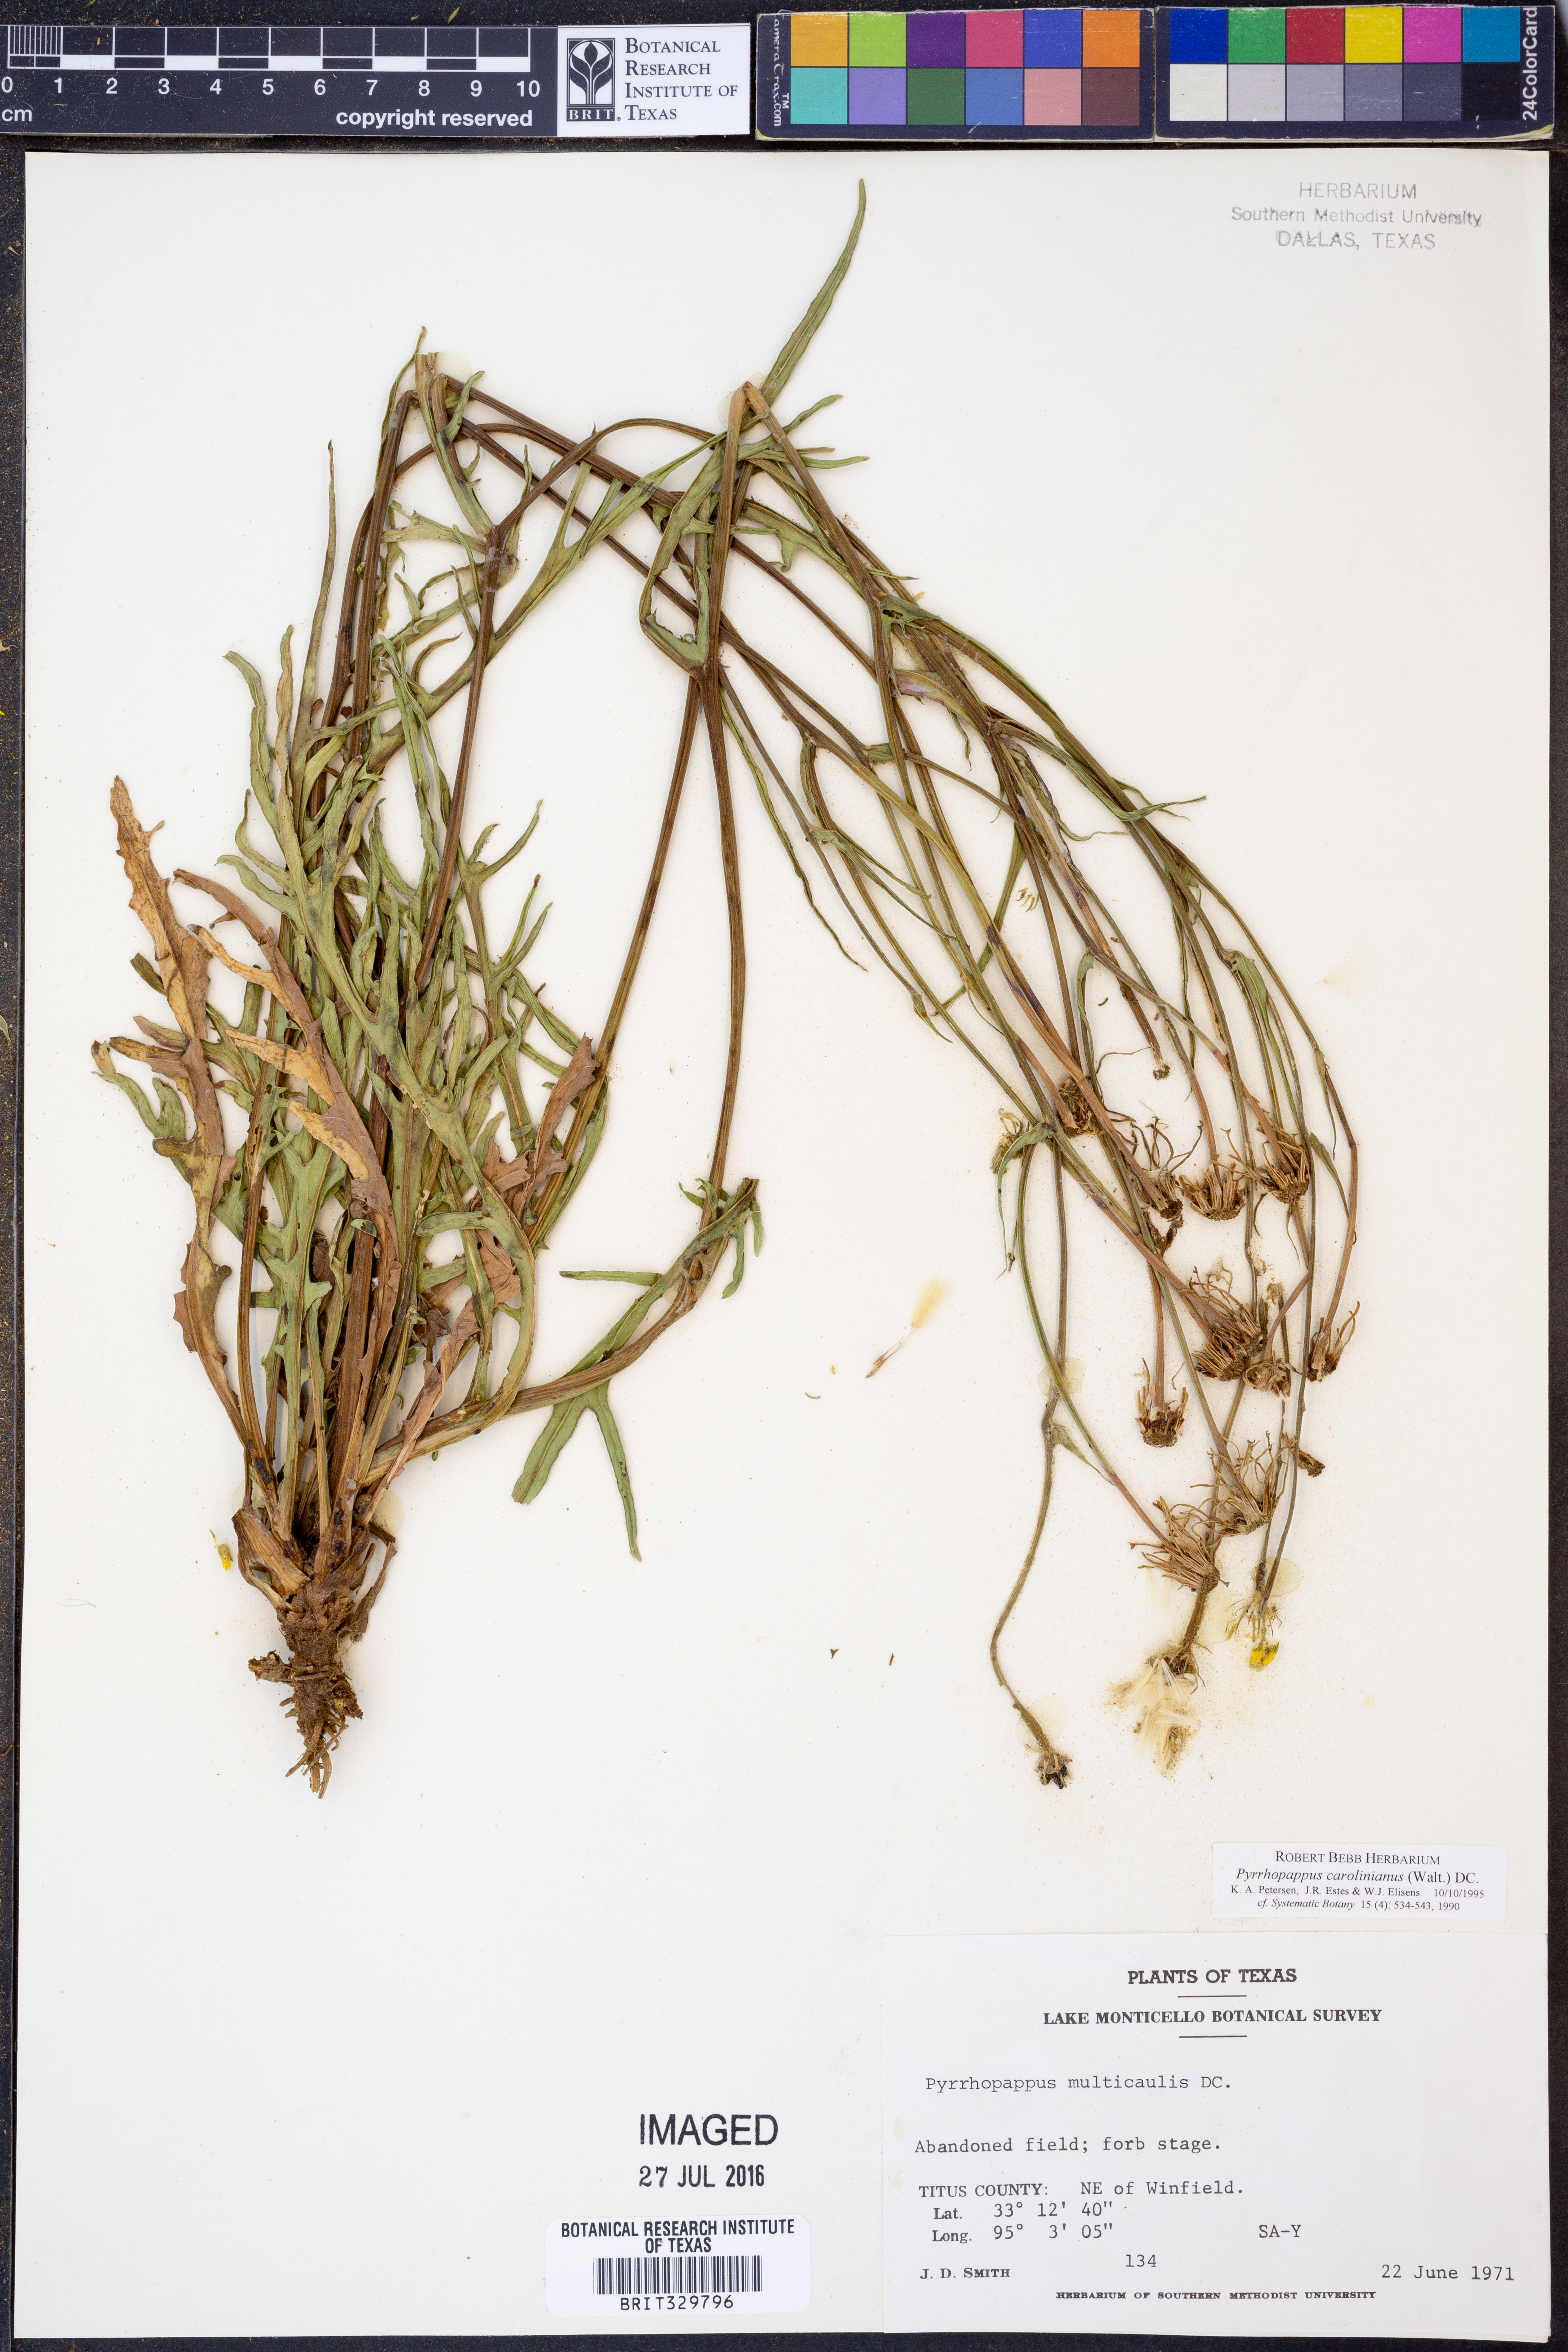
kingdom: Plantae
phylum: Tracheophyta
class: Magnoliopsida
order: Asterales
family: Asteraceae
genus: Pyrrhopappus
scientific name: Pyrrhopappus carolinianus
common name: Carolina desert-chicory
